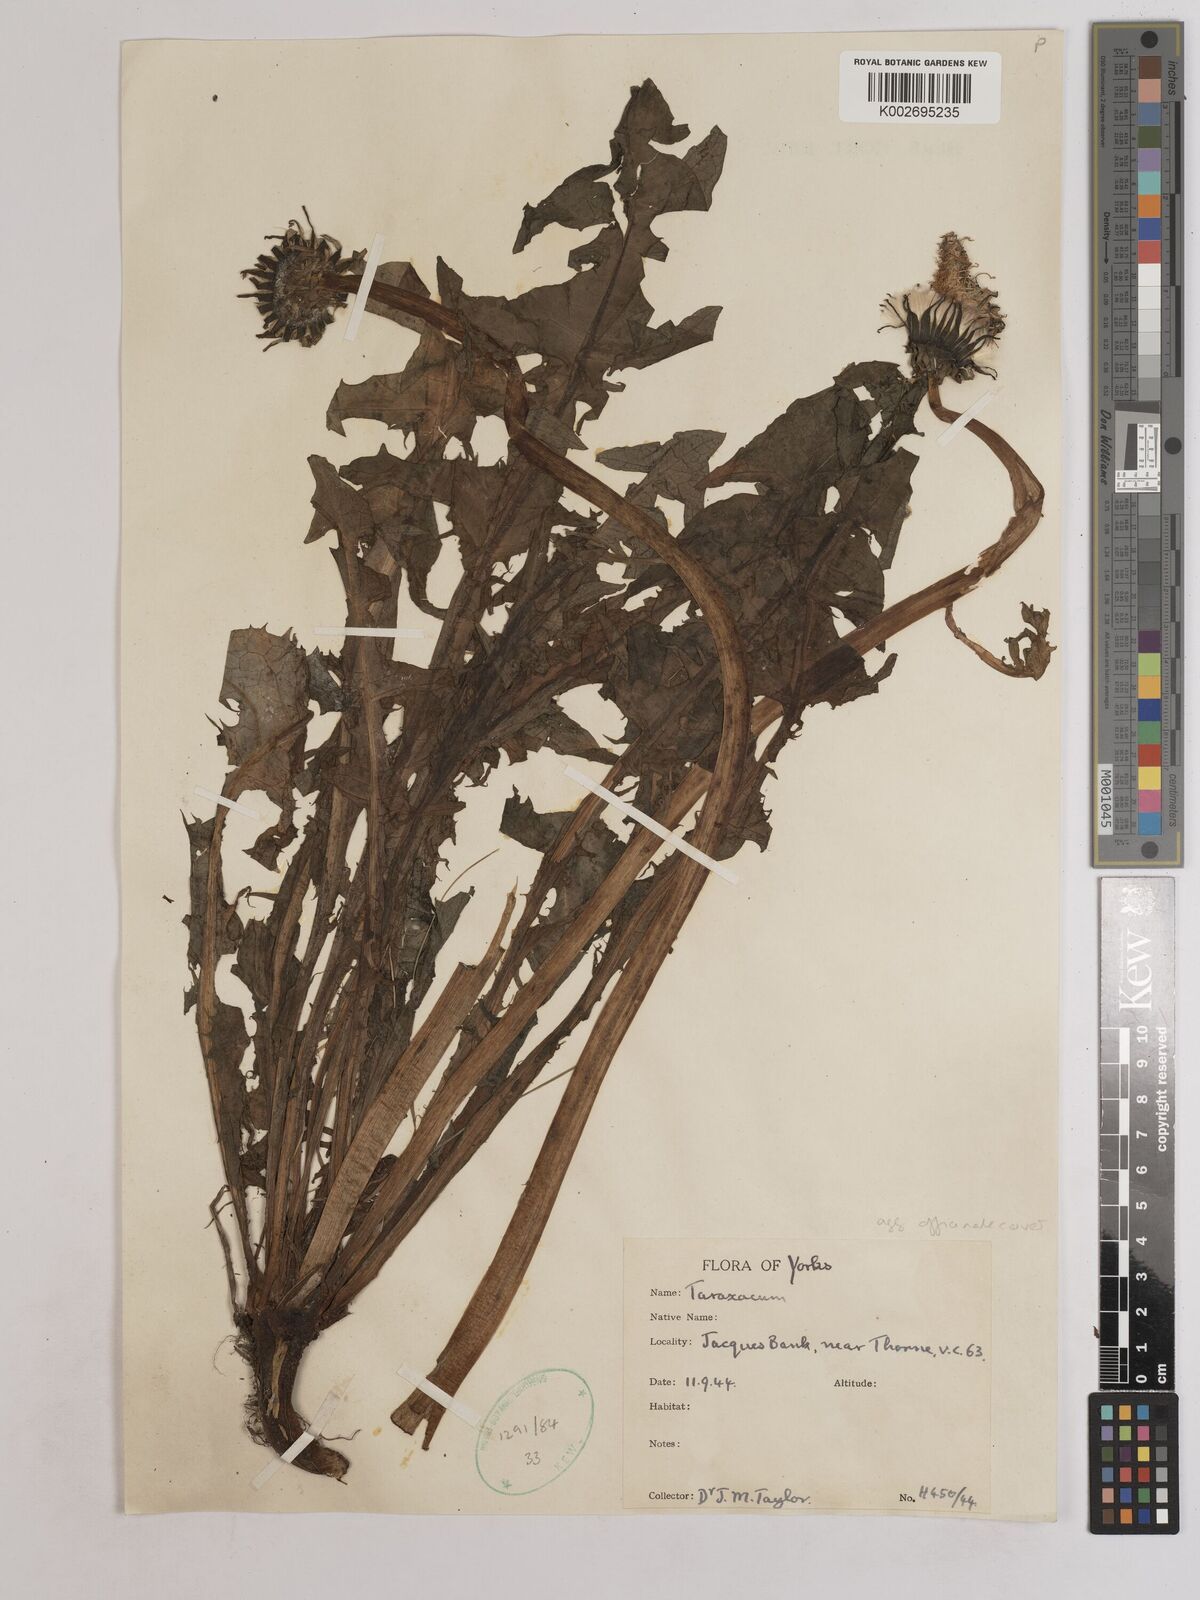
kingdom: Plantae
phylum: Tracheophyta
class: Magnoliopsida
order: Asterales
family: Asteraceae
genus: Taraxacum
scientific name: Taraxacum officinale
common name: Common dandelion
